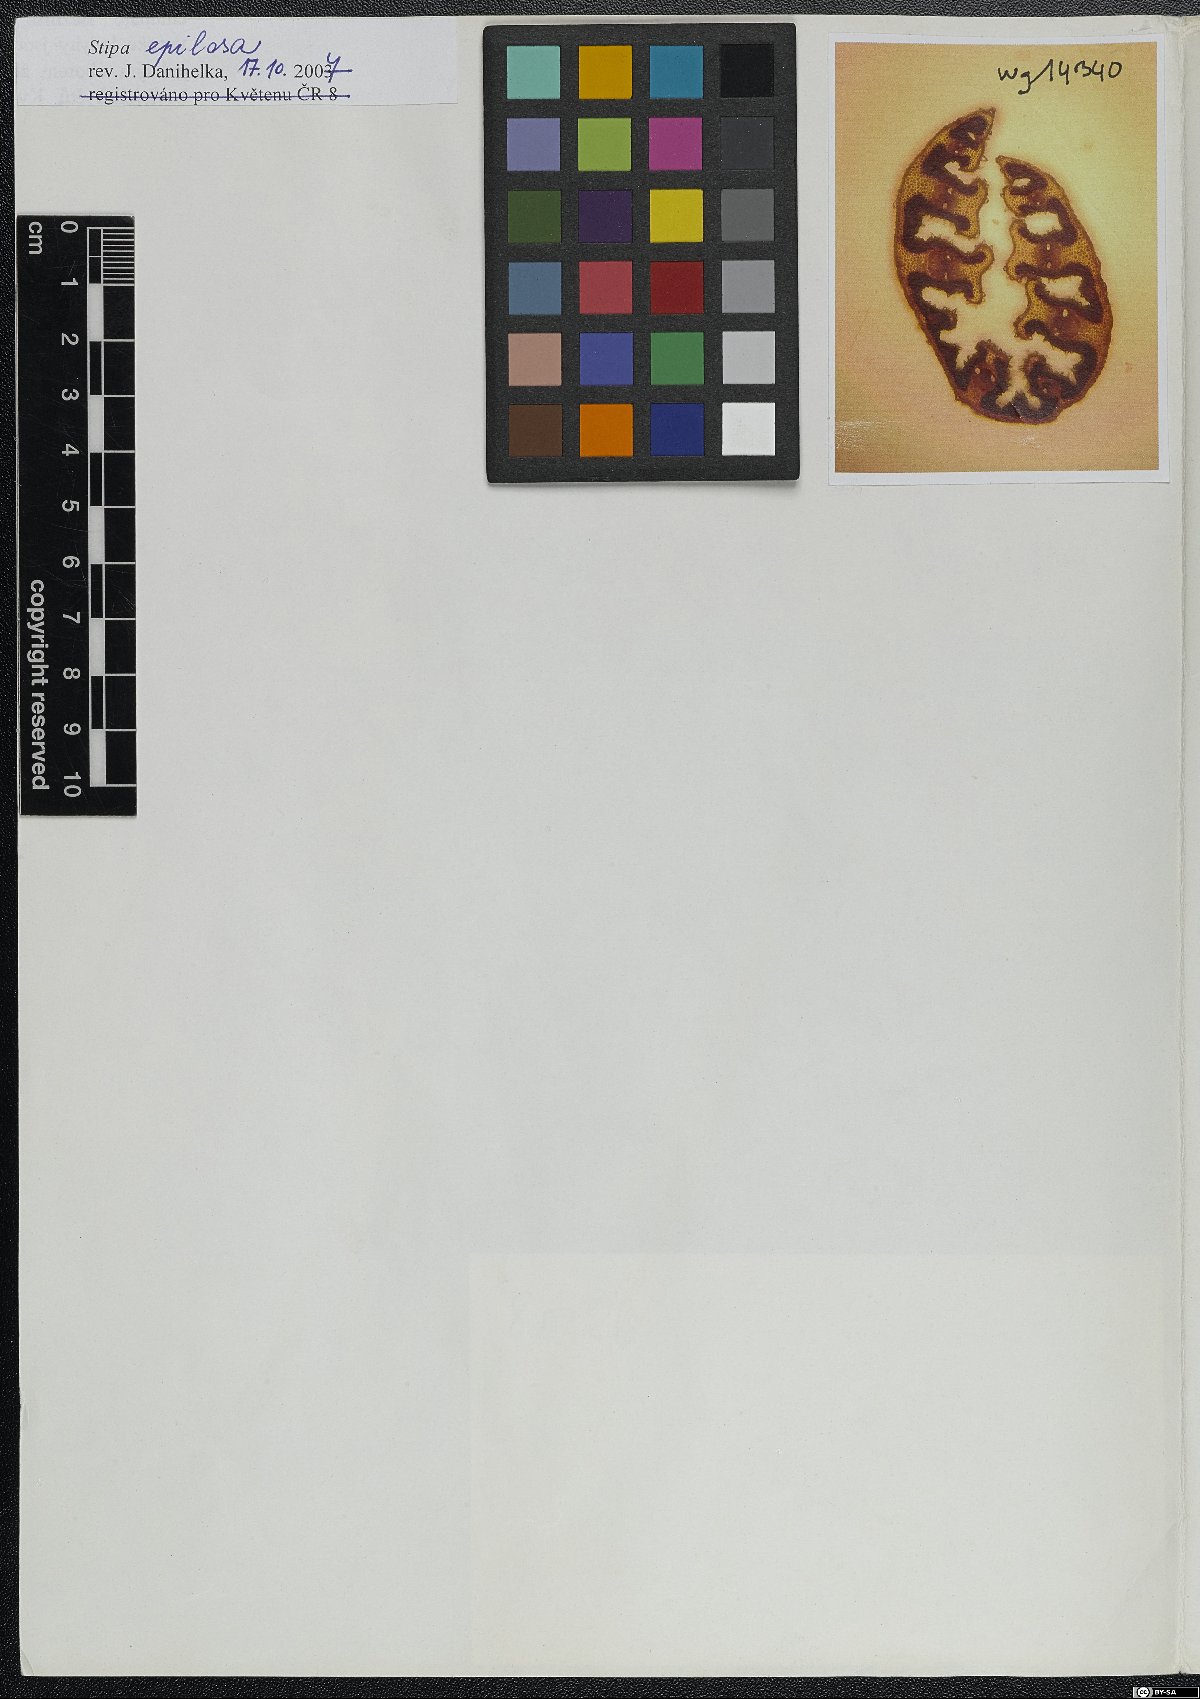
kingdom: Plantae
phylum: Tracheophyta
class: Liliopsida
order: Poales
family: Poaceae
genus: Stipa
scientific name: Stipa pulcherrima
